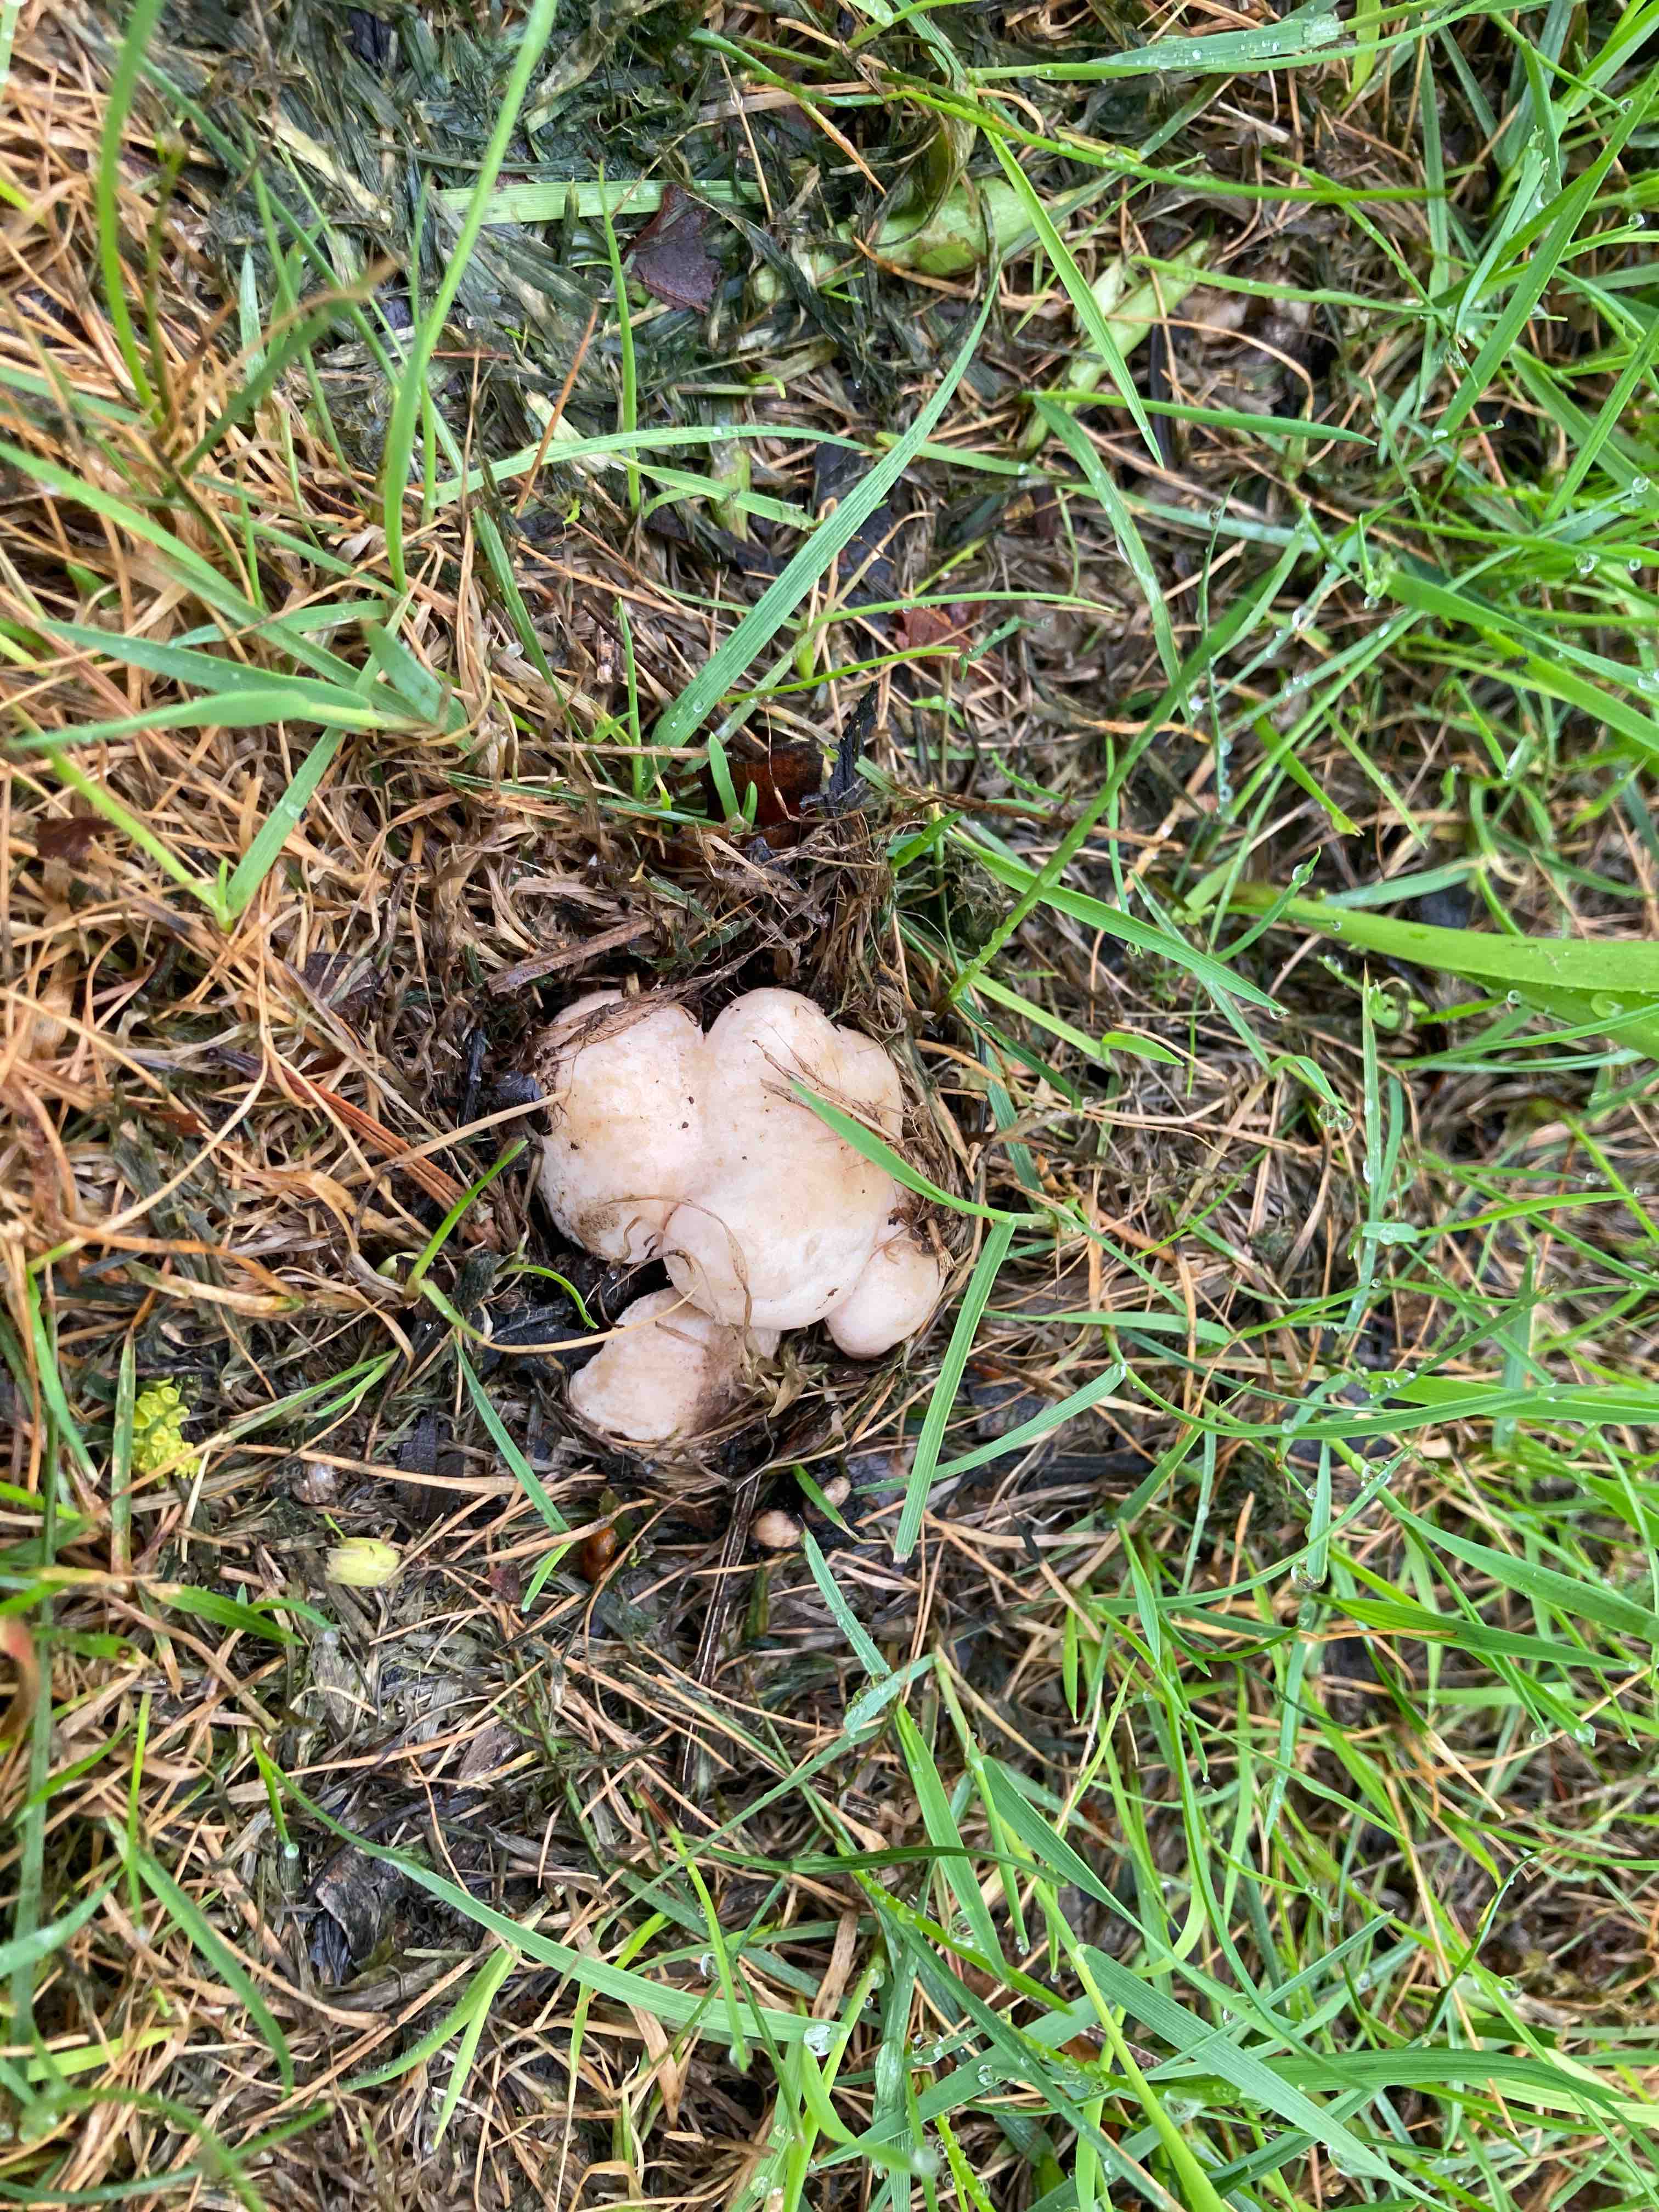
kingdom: Fungi
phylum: Basidiomycota
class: Agaricomycetes
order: Agaricales
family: Lyophyllaceae
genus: Calocybe
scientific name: Calocybe gambosa
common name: vårmusseron
